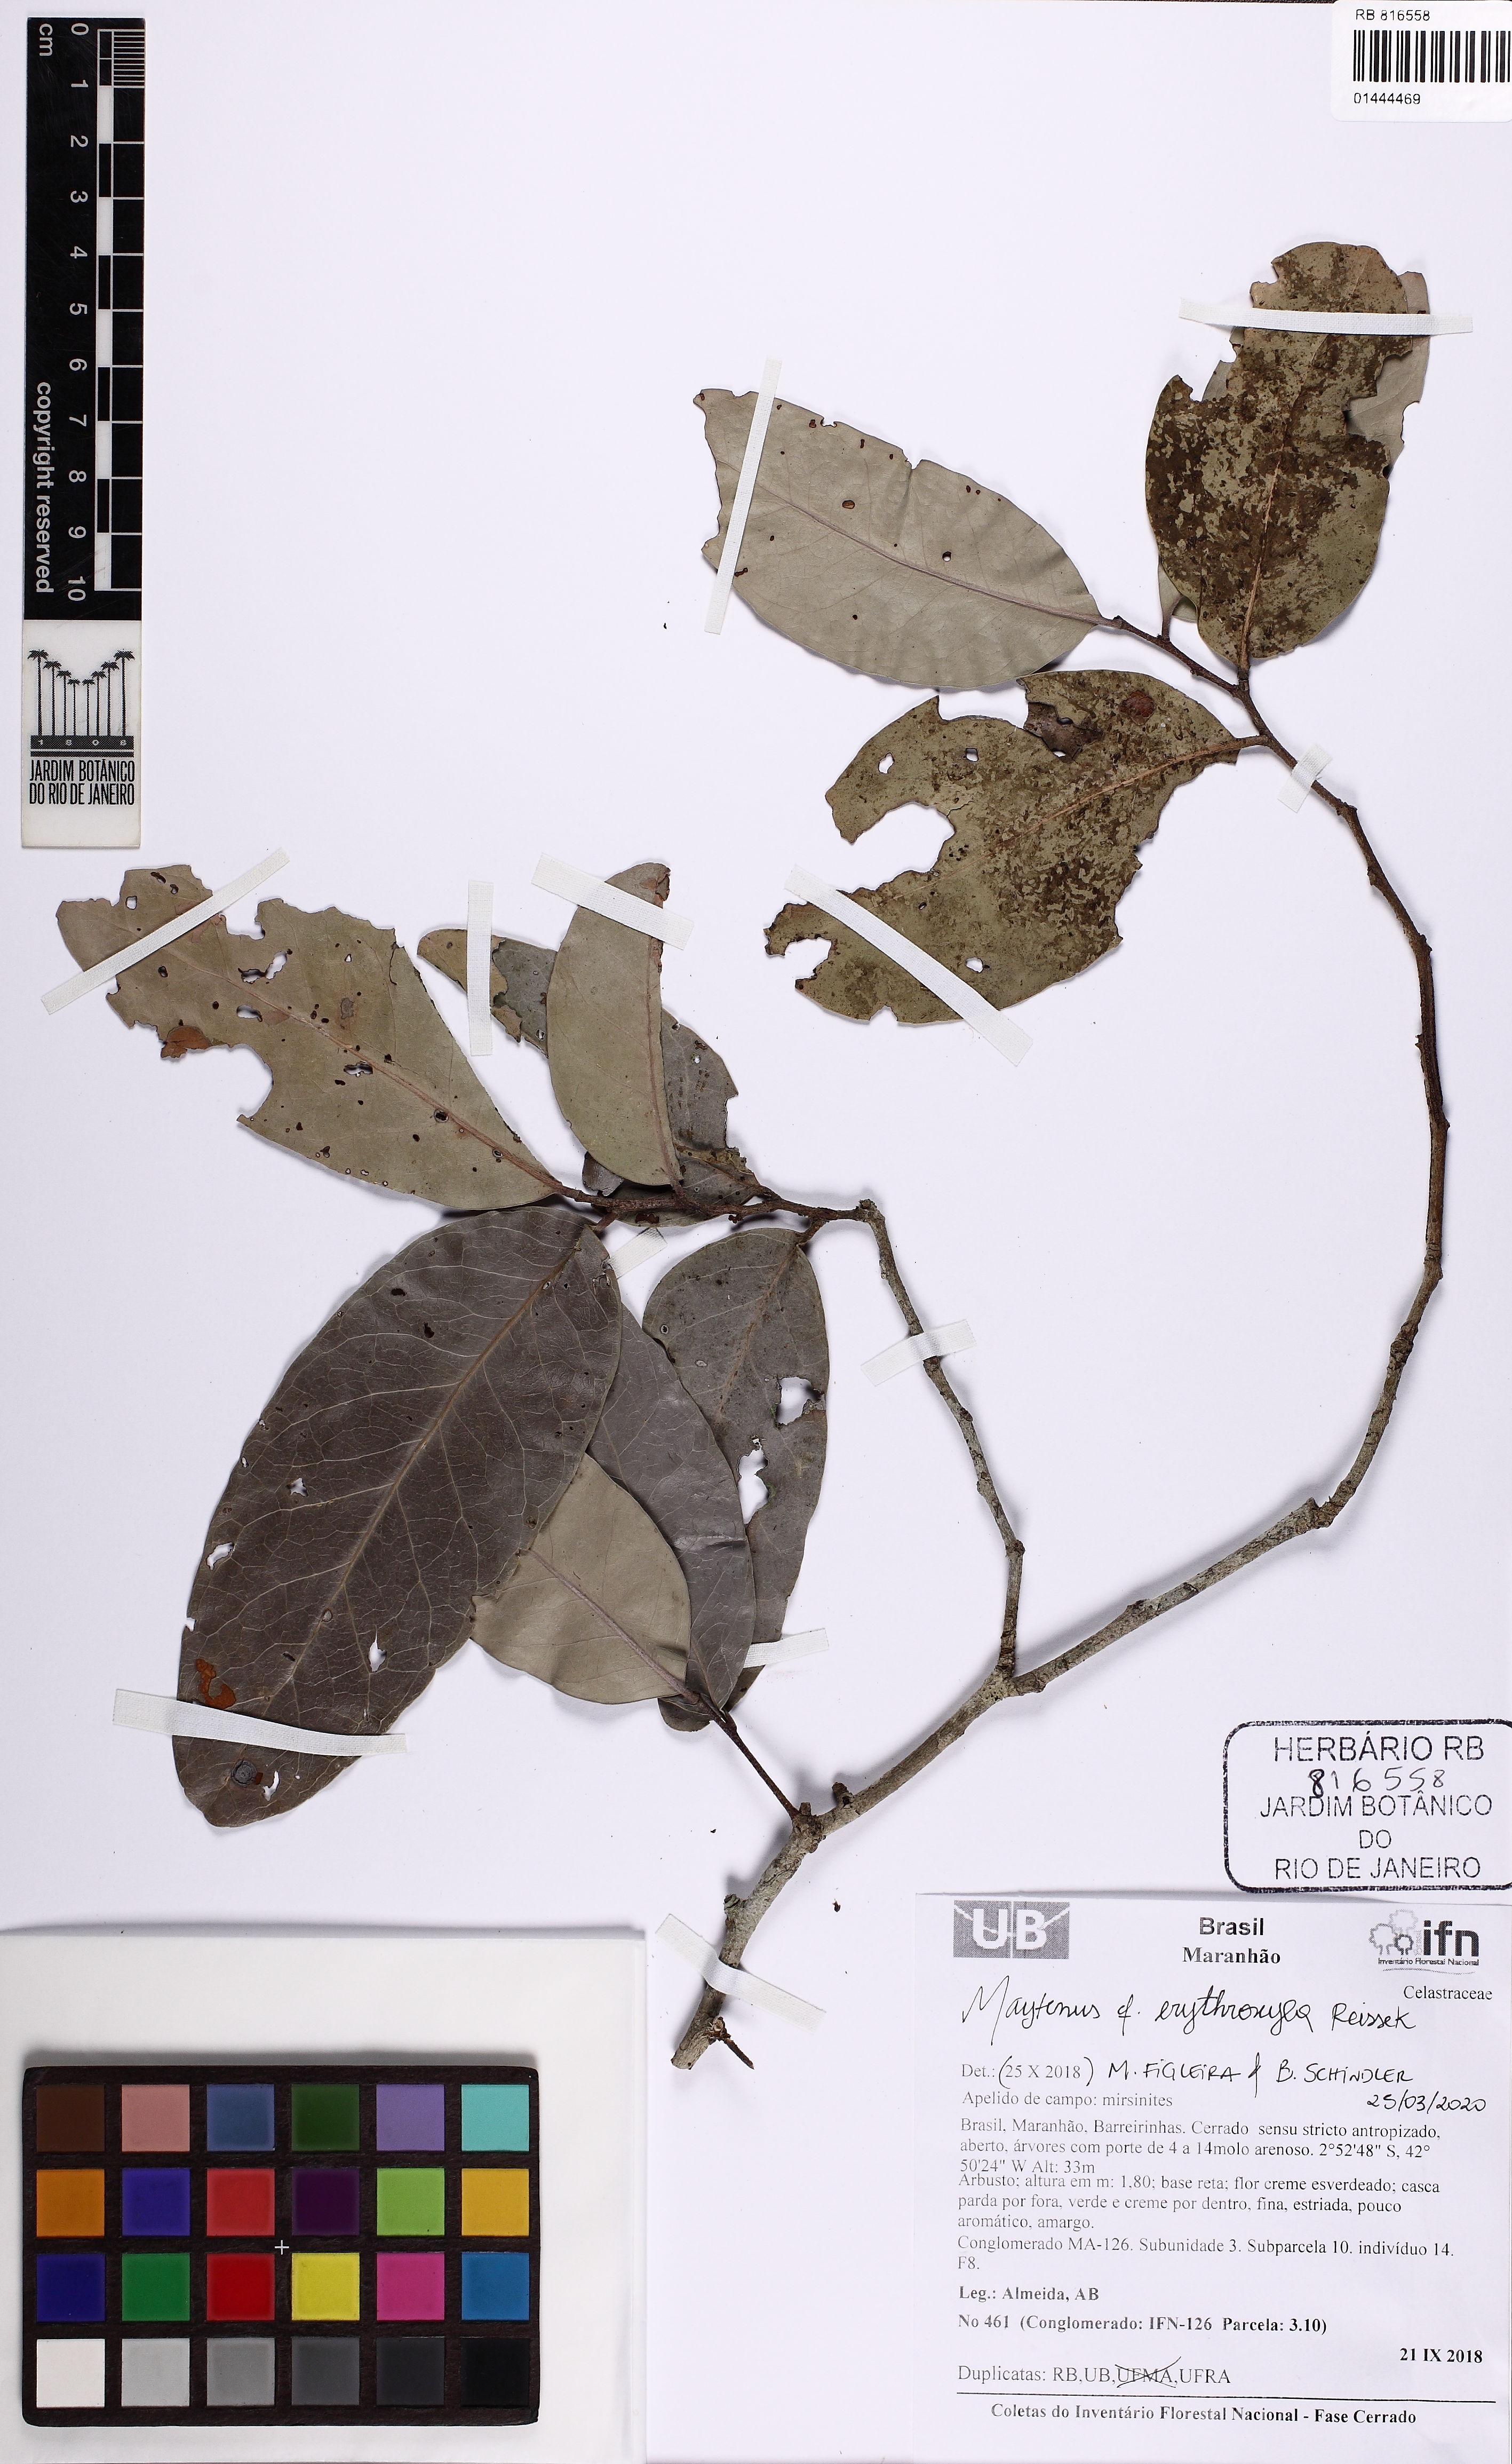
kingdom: Plantae
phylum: Tracheophyta
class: Magnoliopsida
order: Celastrales
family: Celastraceae
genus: Monteverdia
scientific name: Monteverdia erythroxylon
